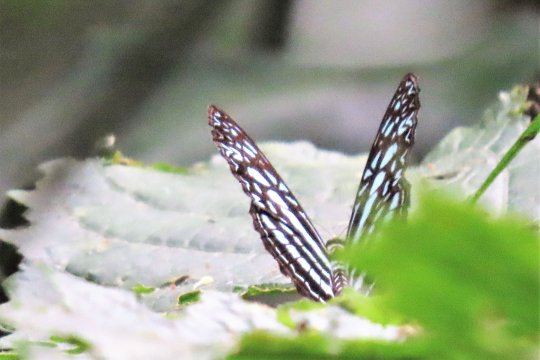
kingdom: Animalia
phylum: Arthropoda
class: Insecta
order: Lepidoptera
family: Nymphalidae
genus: Pseudoneptis
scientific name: Pseudoneptis bugandensis
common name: Blue Sailer
